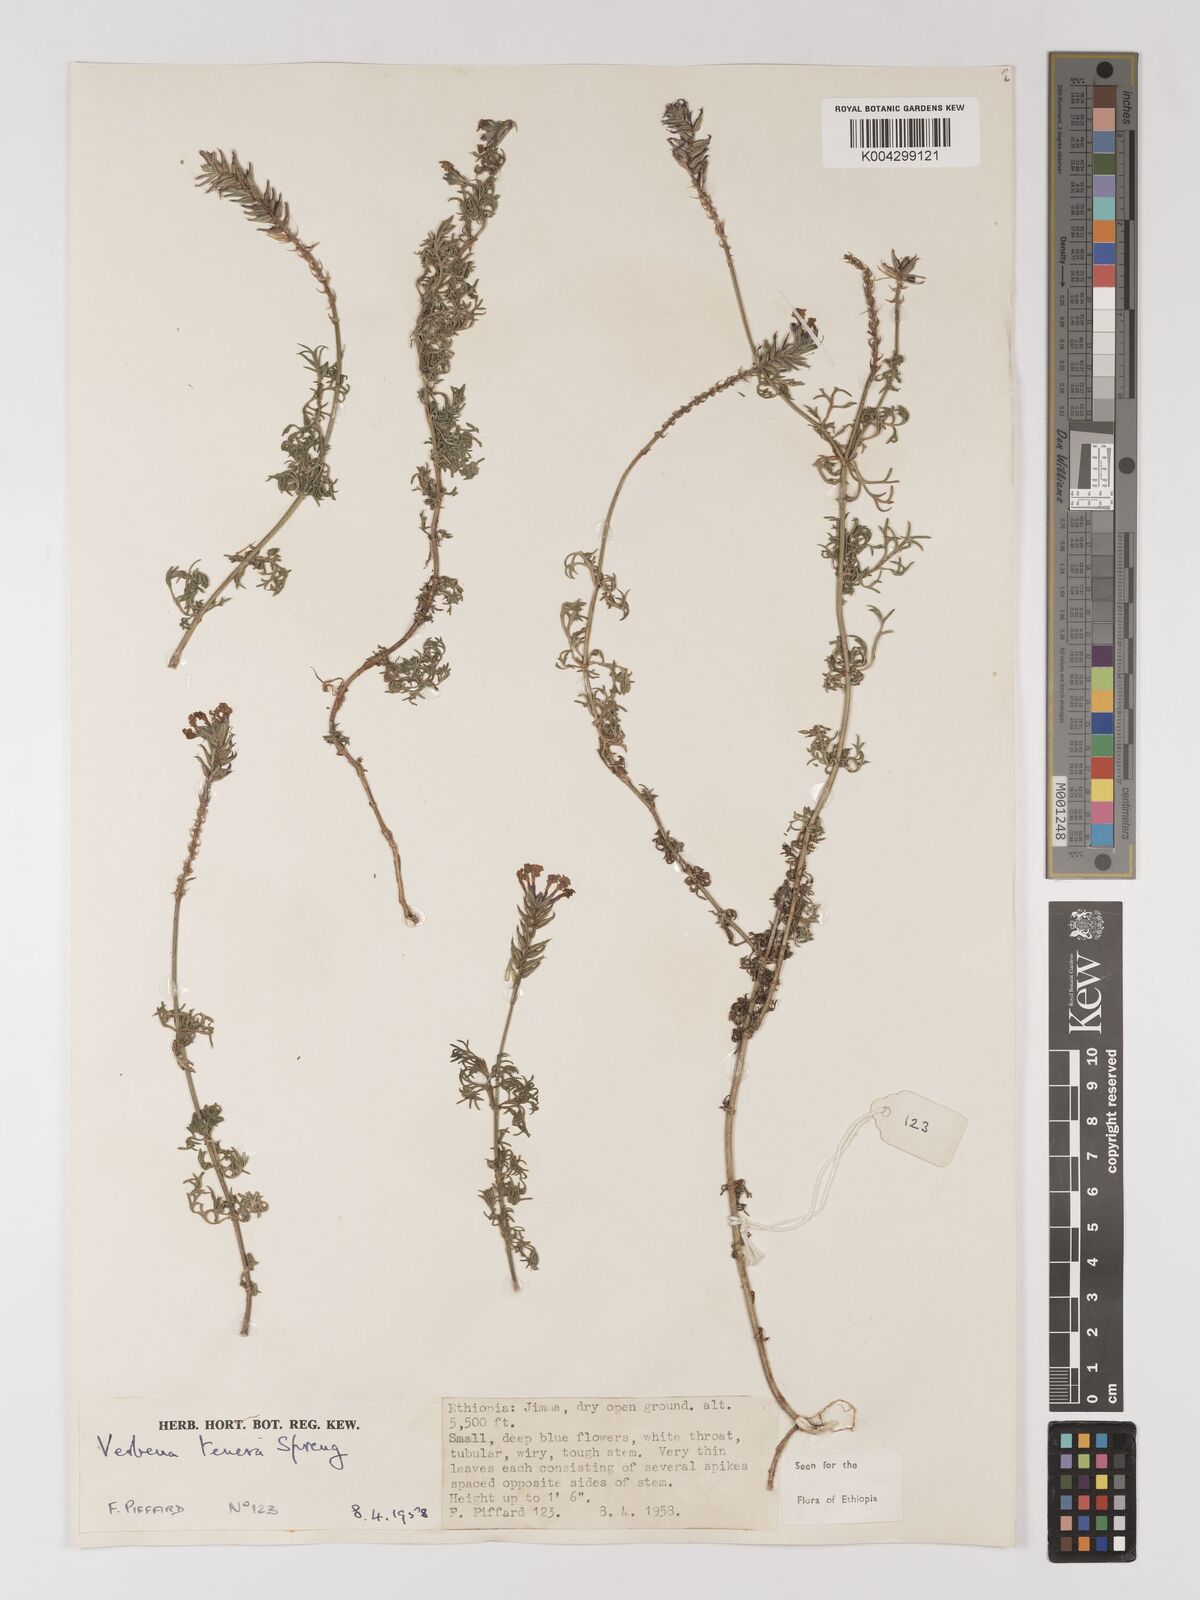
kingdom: Plantae
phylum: Tracheophyta
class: Magnoliopsida
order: Lamiales
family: Verbenaceae
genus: Verbena
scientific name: Verbena tenera
